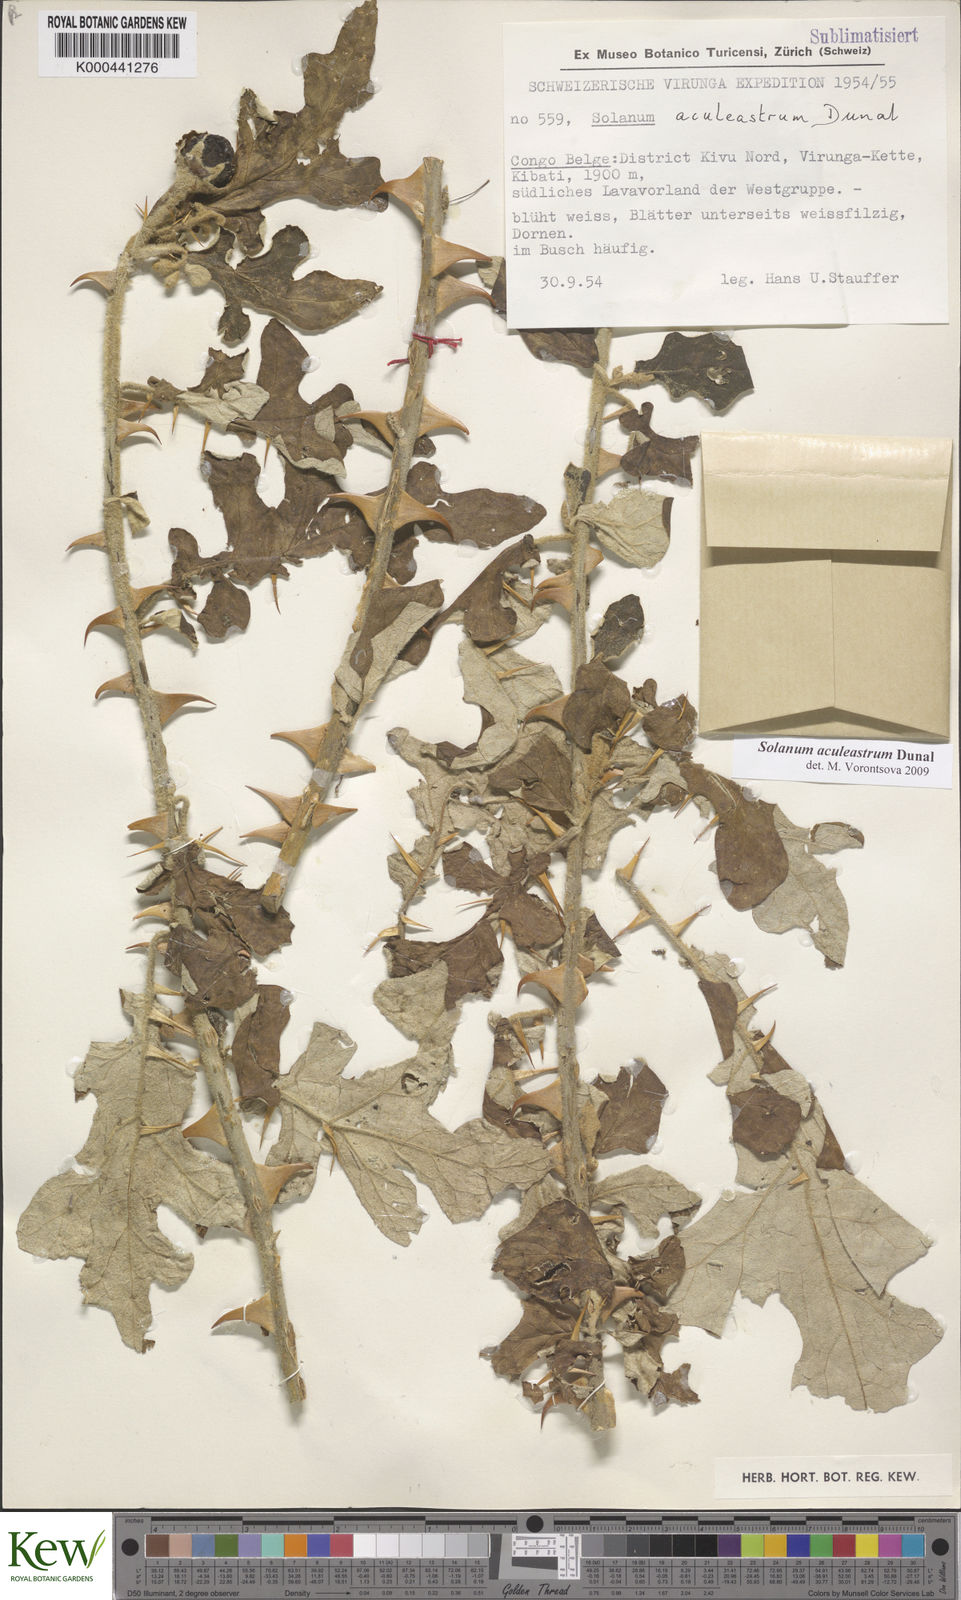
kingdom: Plantae
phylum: Tracheophyta
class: Magnoliopsida
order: Solanales
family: Solanaceae
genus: Solanum
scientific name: Solanum aculeastrum
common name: Goat bitter-apple
